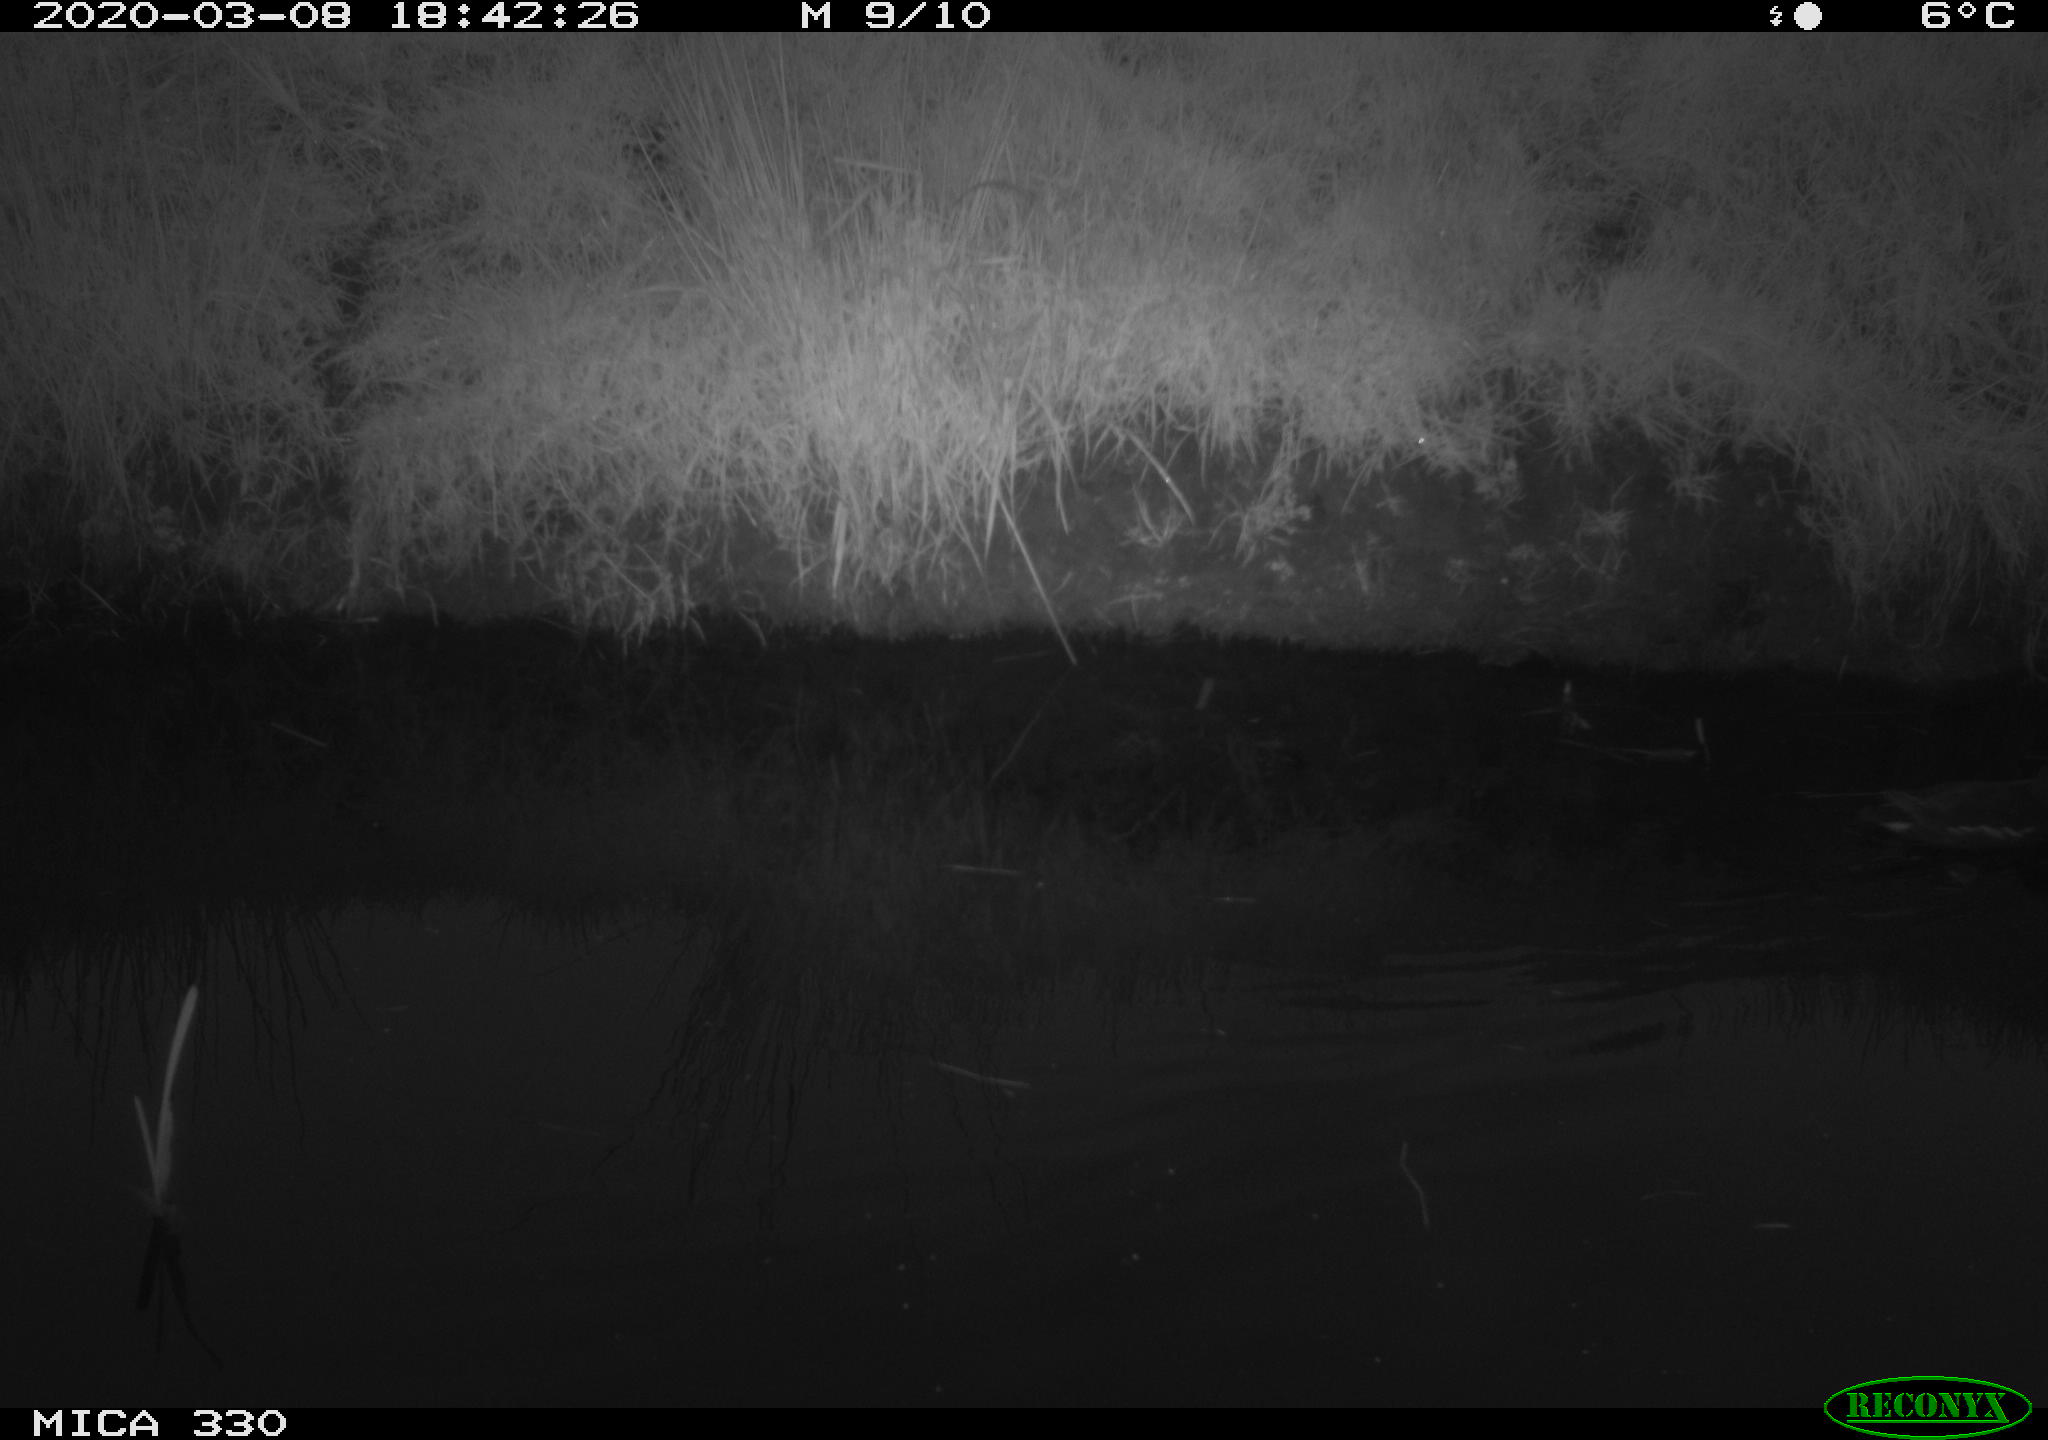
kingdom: Animalia
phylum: Chordata
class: Aves
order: Gruiformes
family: Rallidae
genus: Gallinula
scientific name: Gallinula chloropus
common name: Common moorhen
